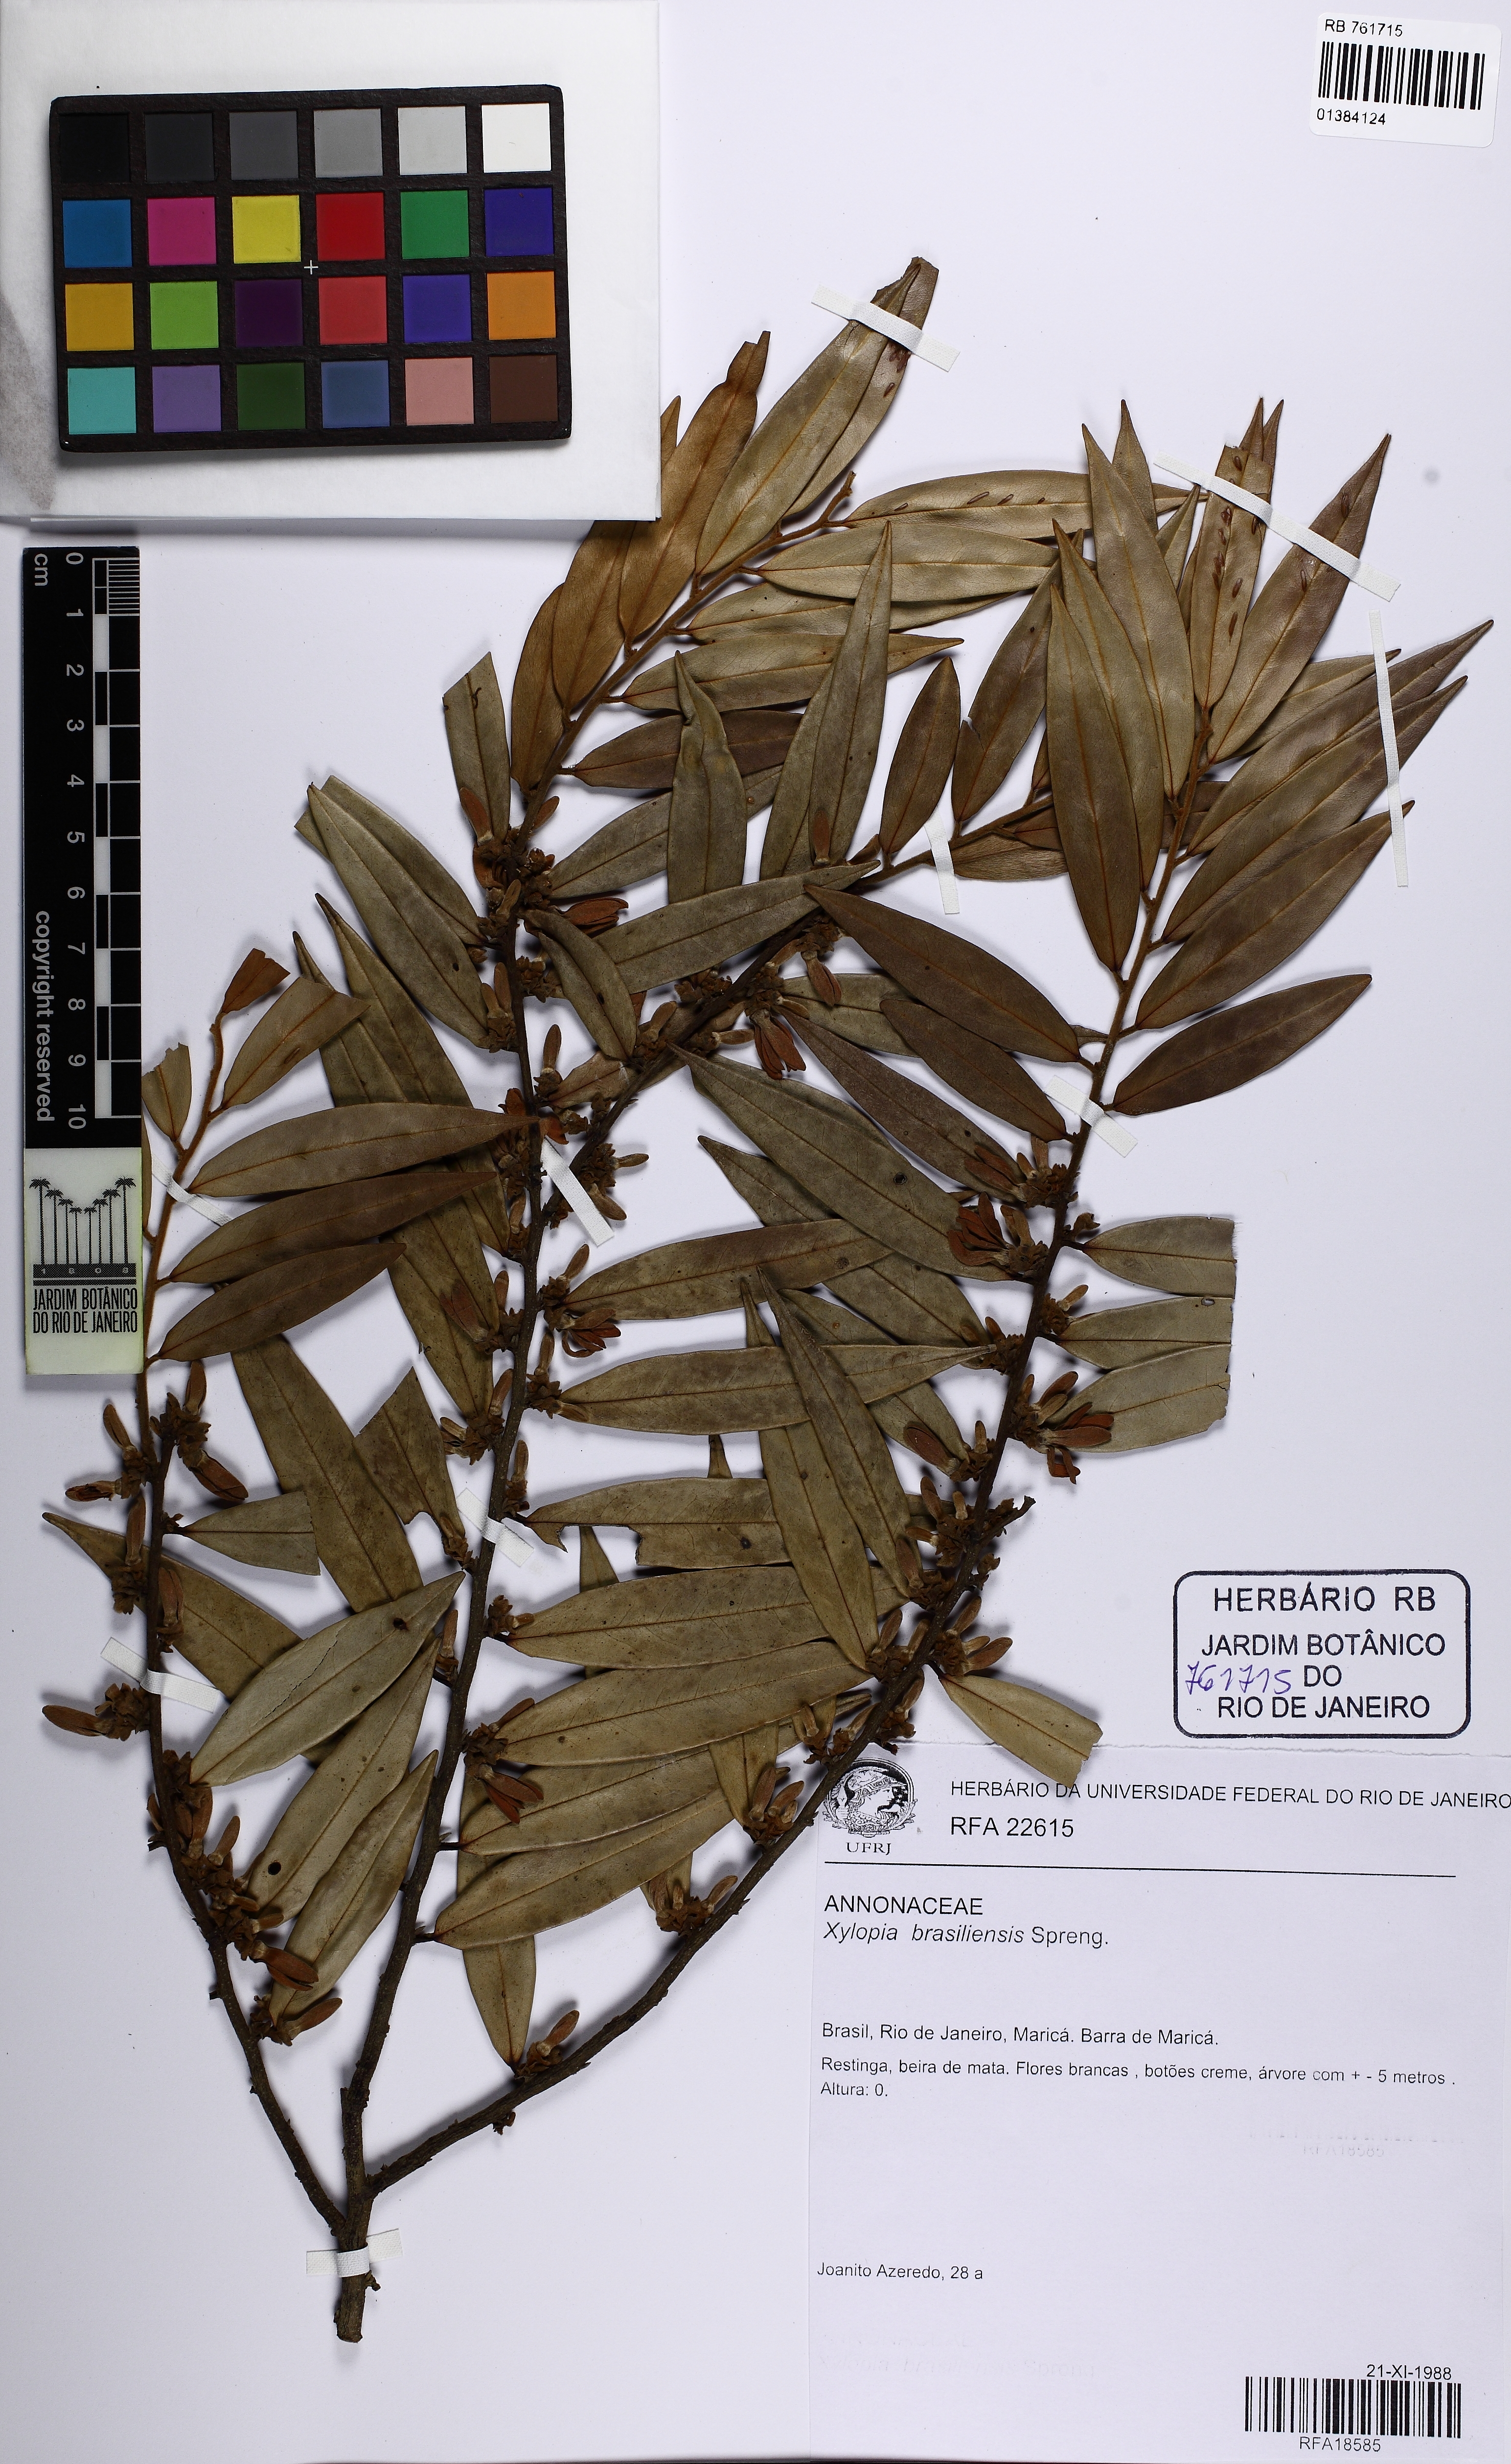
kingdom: Plantae
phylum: Tracheophyta
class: Magnoliopsida
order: Magnoliales
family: Annonaceae
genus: Xylopia
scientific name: Xylopia brasiliensis
